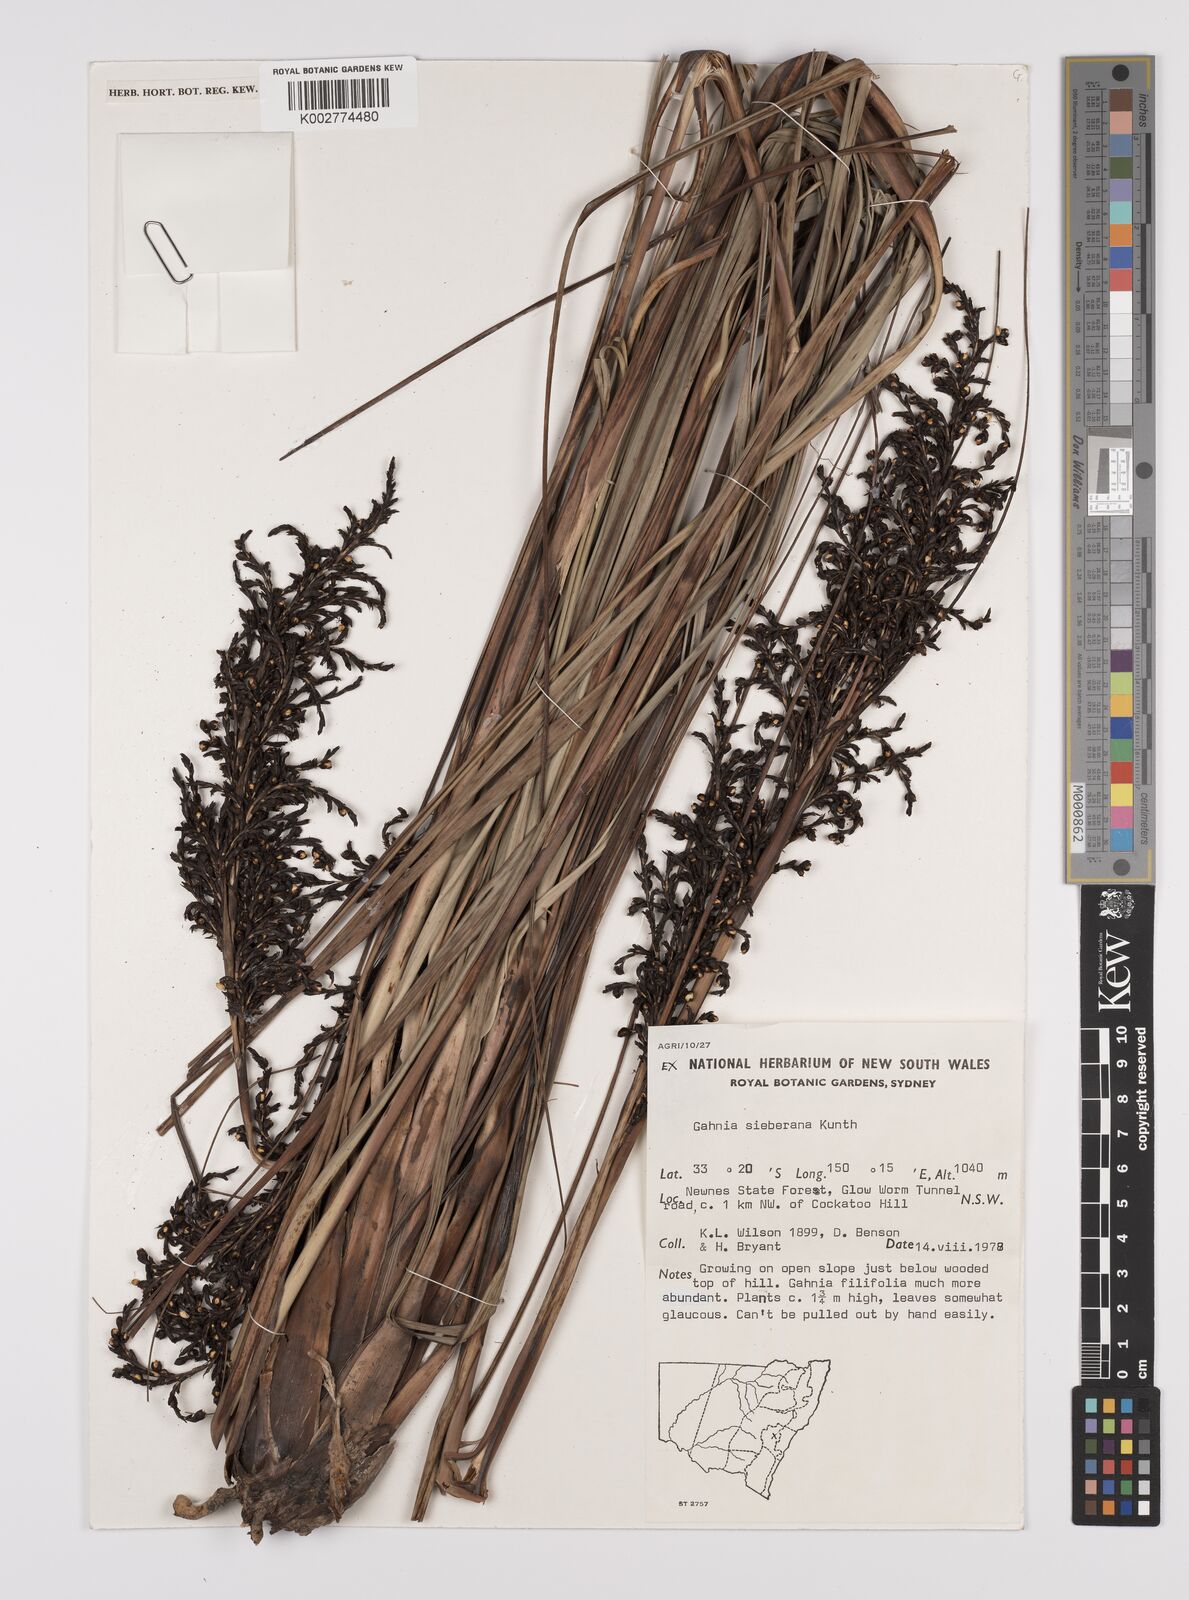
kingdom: Plantae
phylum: Tracheophyta
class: Liliopsida
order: Poales
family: Cyperaceae
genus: Gahnia
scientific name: Gahnia sieberiana
